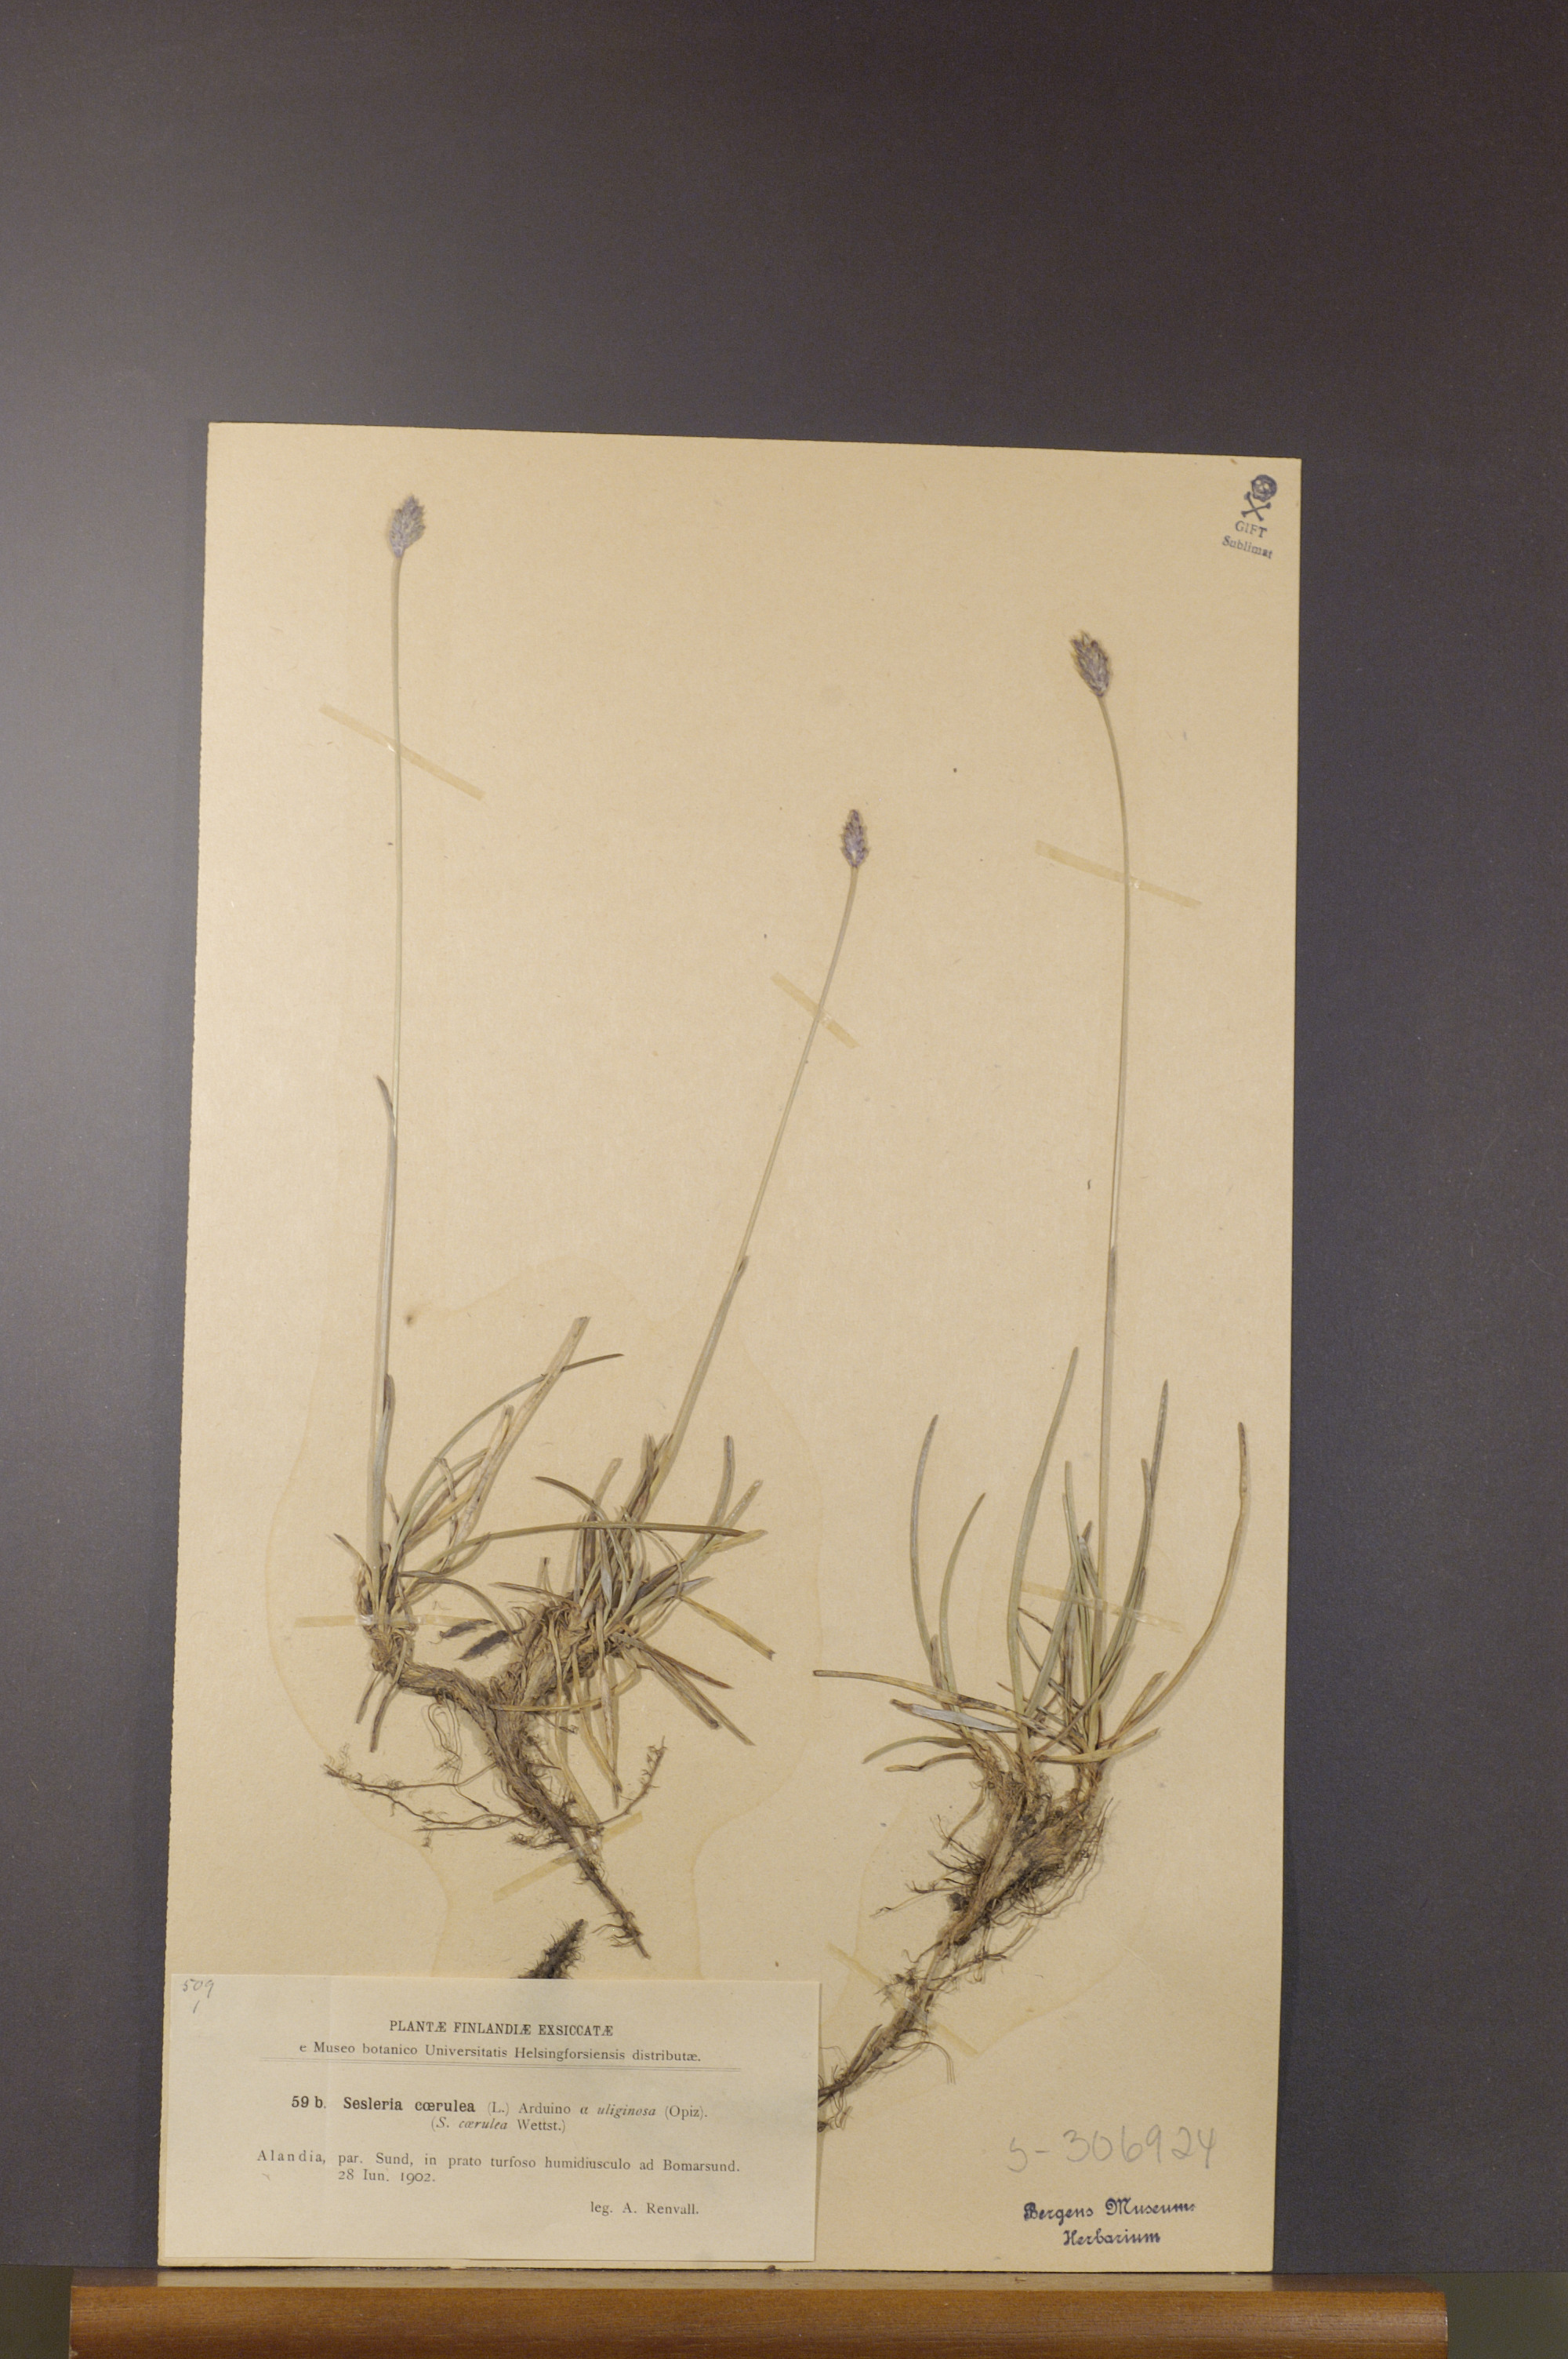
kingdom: Plantae
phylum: Tracheophyta
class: Liliopsida
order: Poales
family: Poaceae
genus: Sesleria
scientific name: Sesleria caerulea
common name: Blue moor-grass
